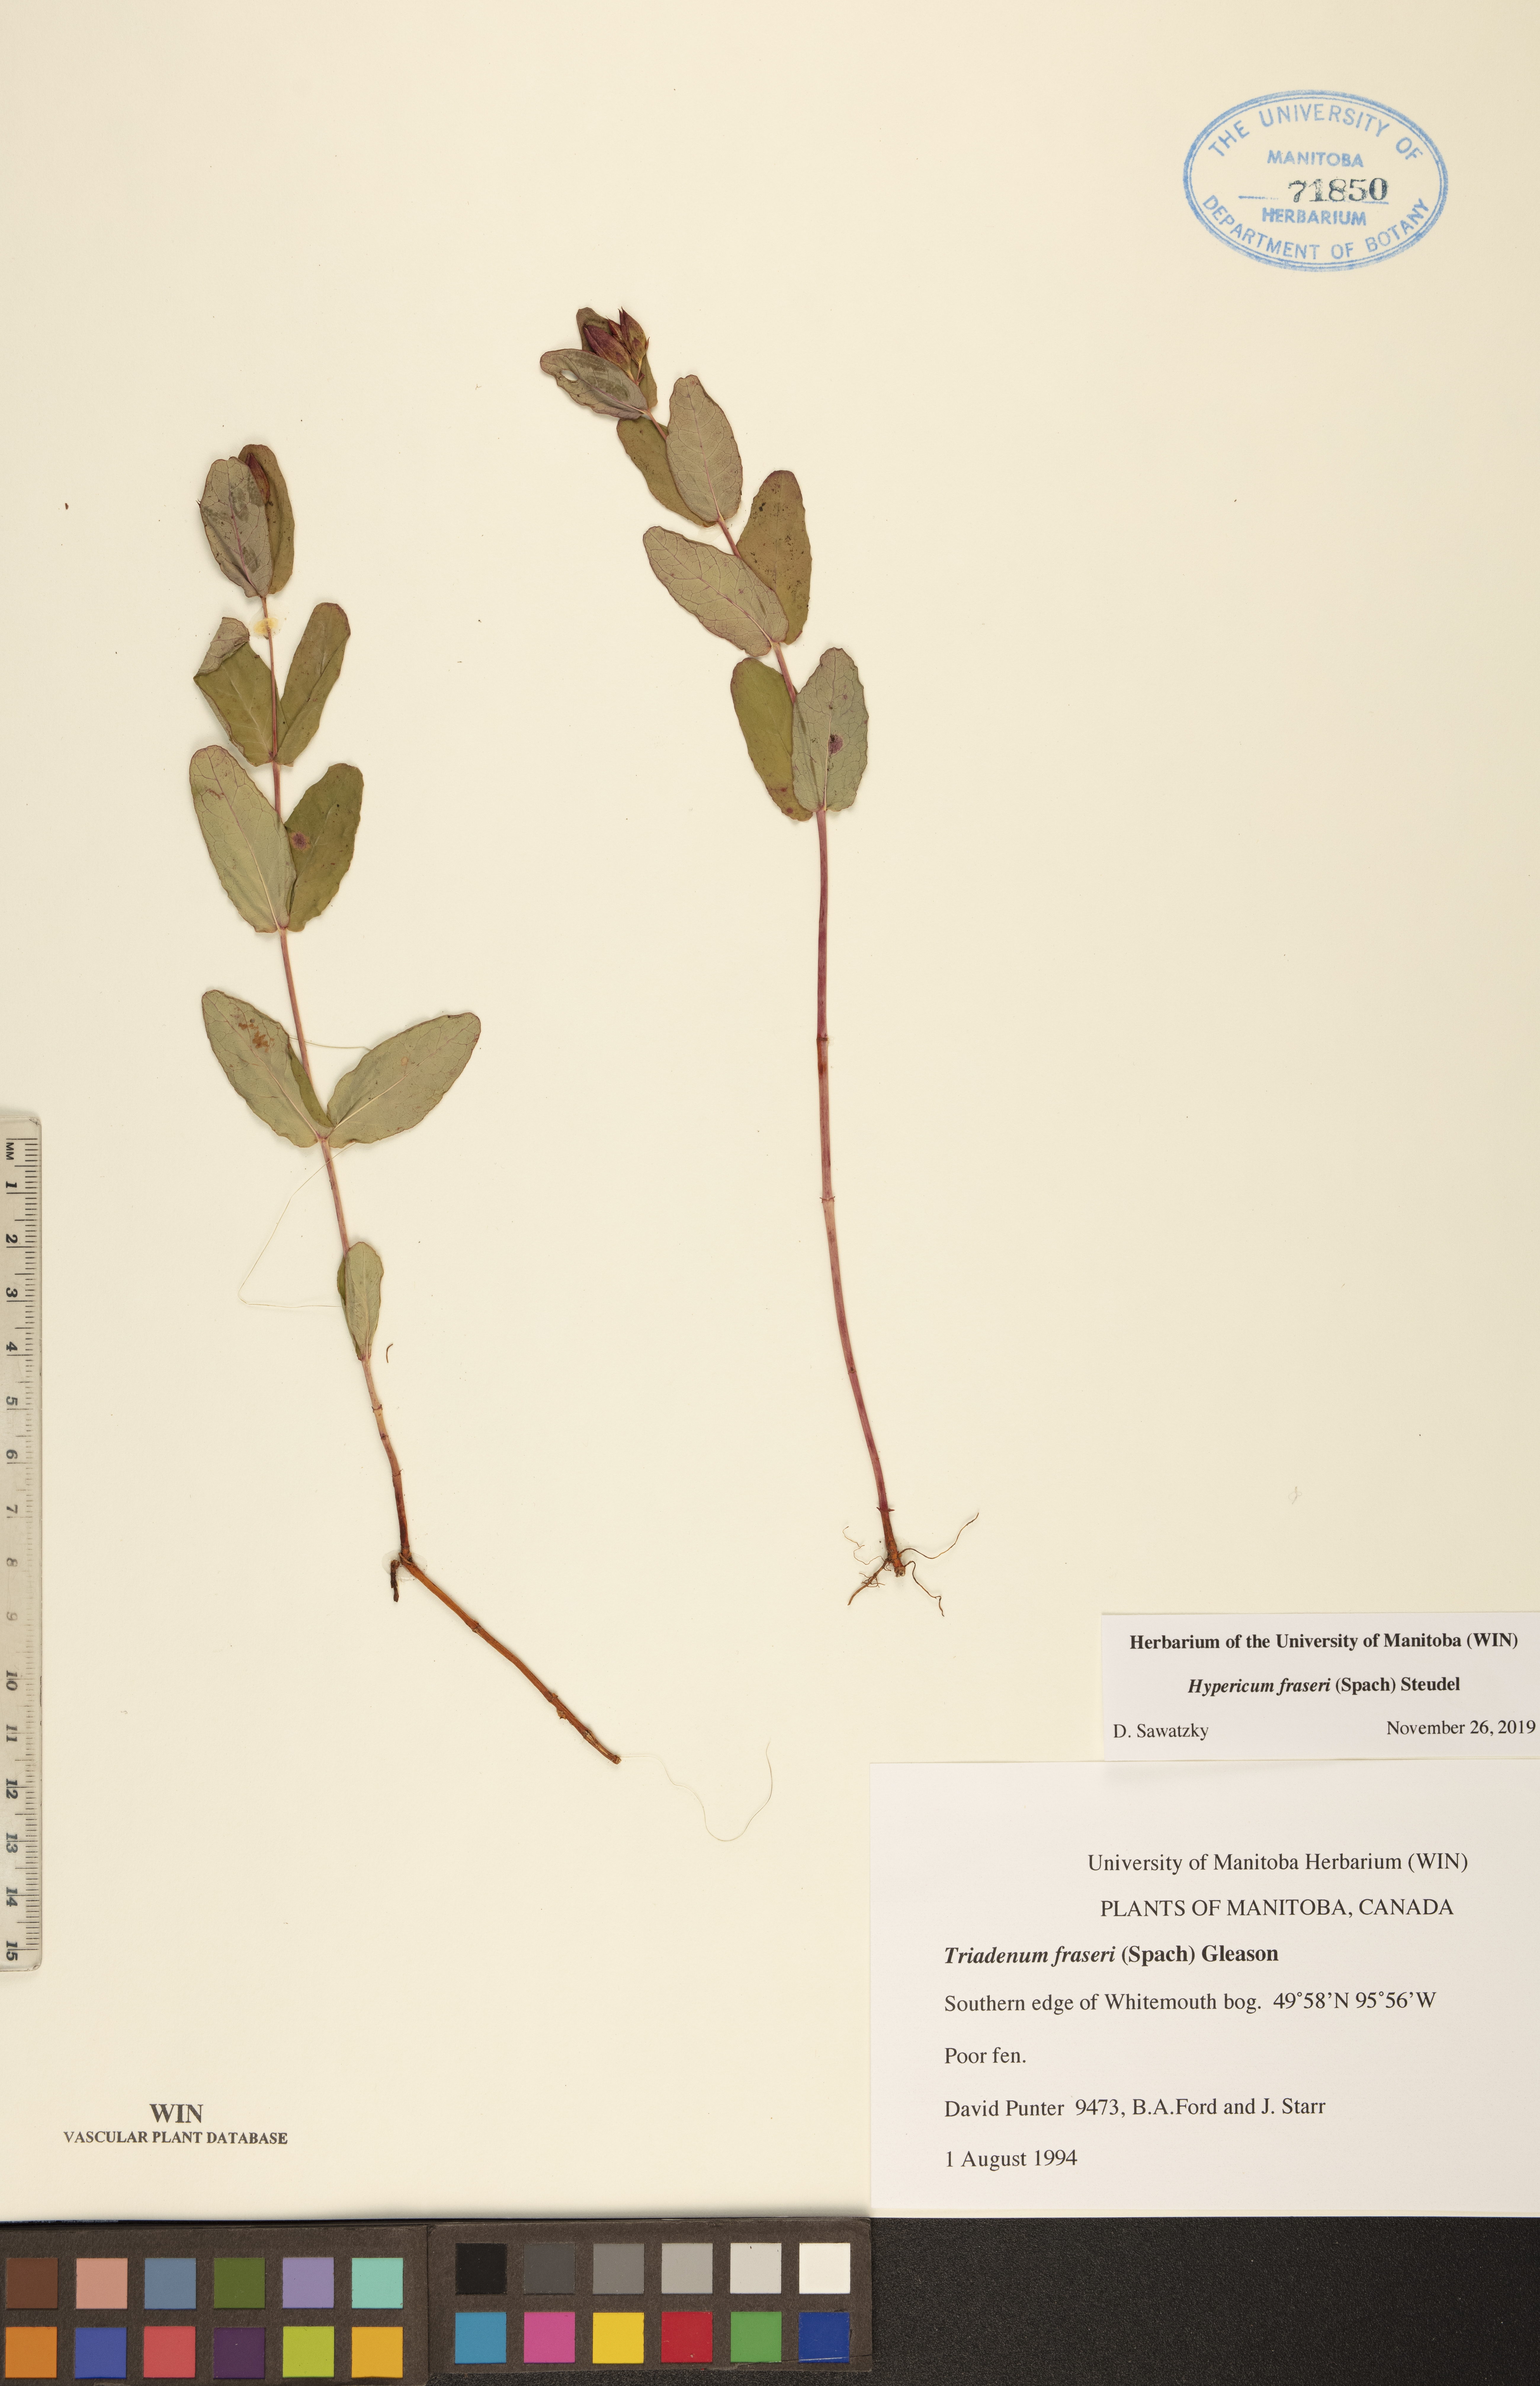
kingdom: Plantae
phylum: Tracheophyta
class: Magnoliopsida
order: Malpighiales
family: Hypericaceae
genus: Triadenum
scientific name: Triadenum fraseri
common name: Fraser's marsh st. johnswort
